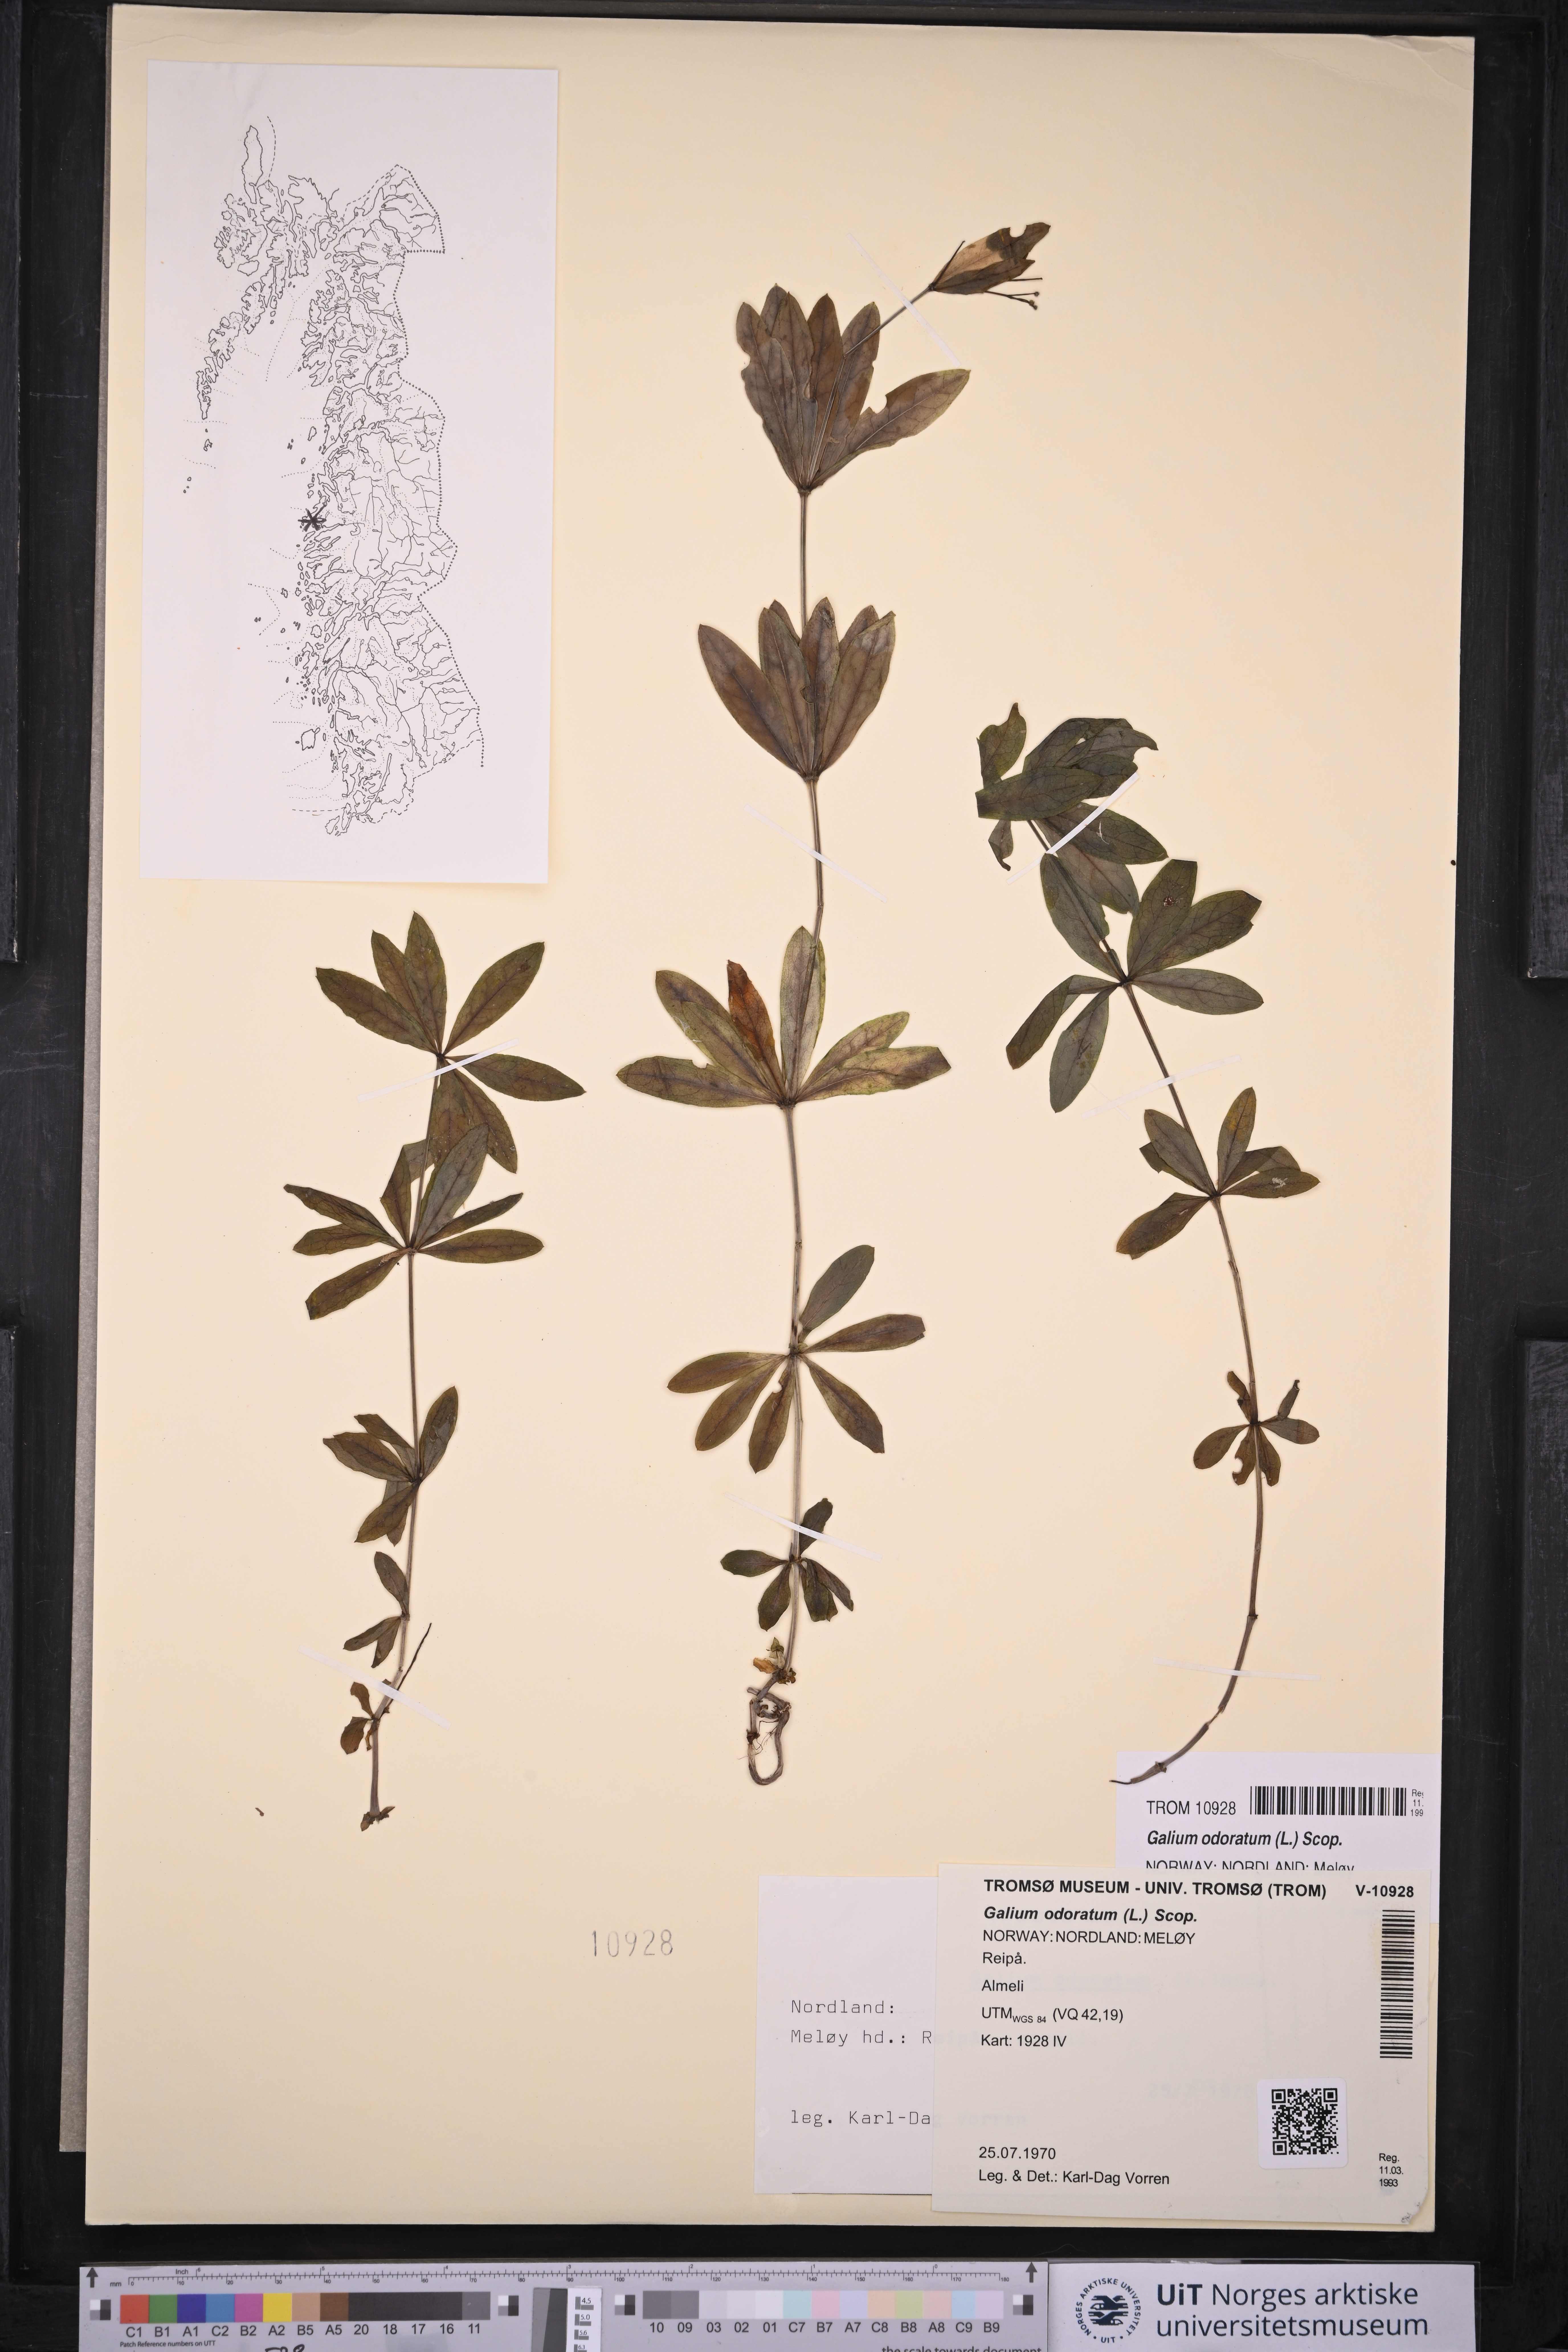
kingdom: Plantae
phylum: Tracheophyta
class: Magnoliopsida
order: Gentianales
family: Rubiaceae
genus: Galium
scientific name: Galium odoratum
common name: Sweet woodruff
